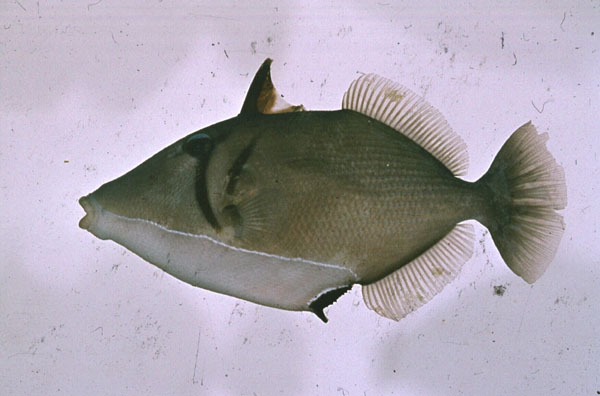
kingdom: Animalia
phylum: Chordata
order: Tetraodontiformes
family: Balistidae
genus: Sufflamen
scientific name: Sufflamen bursa
